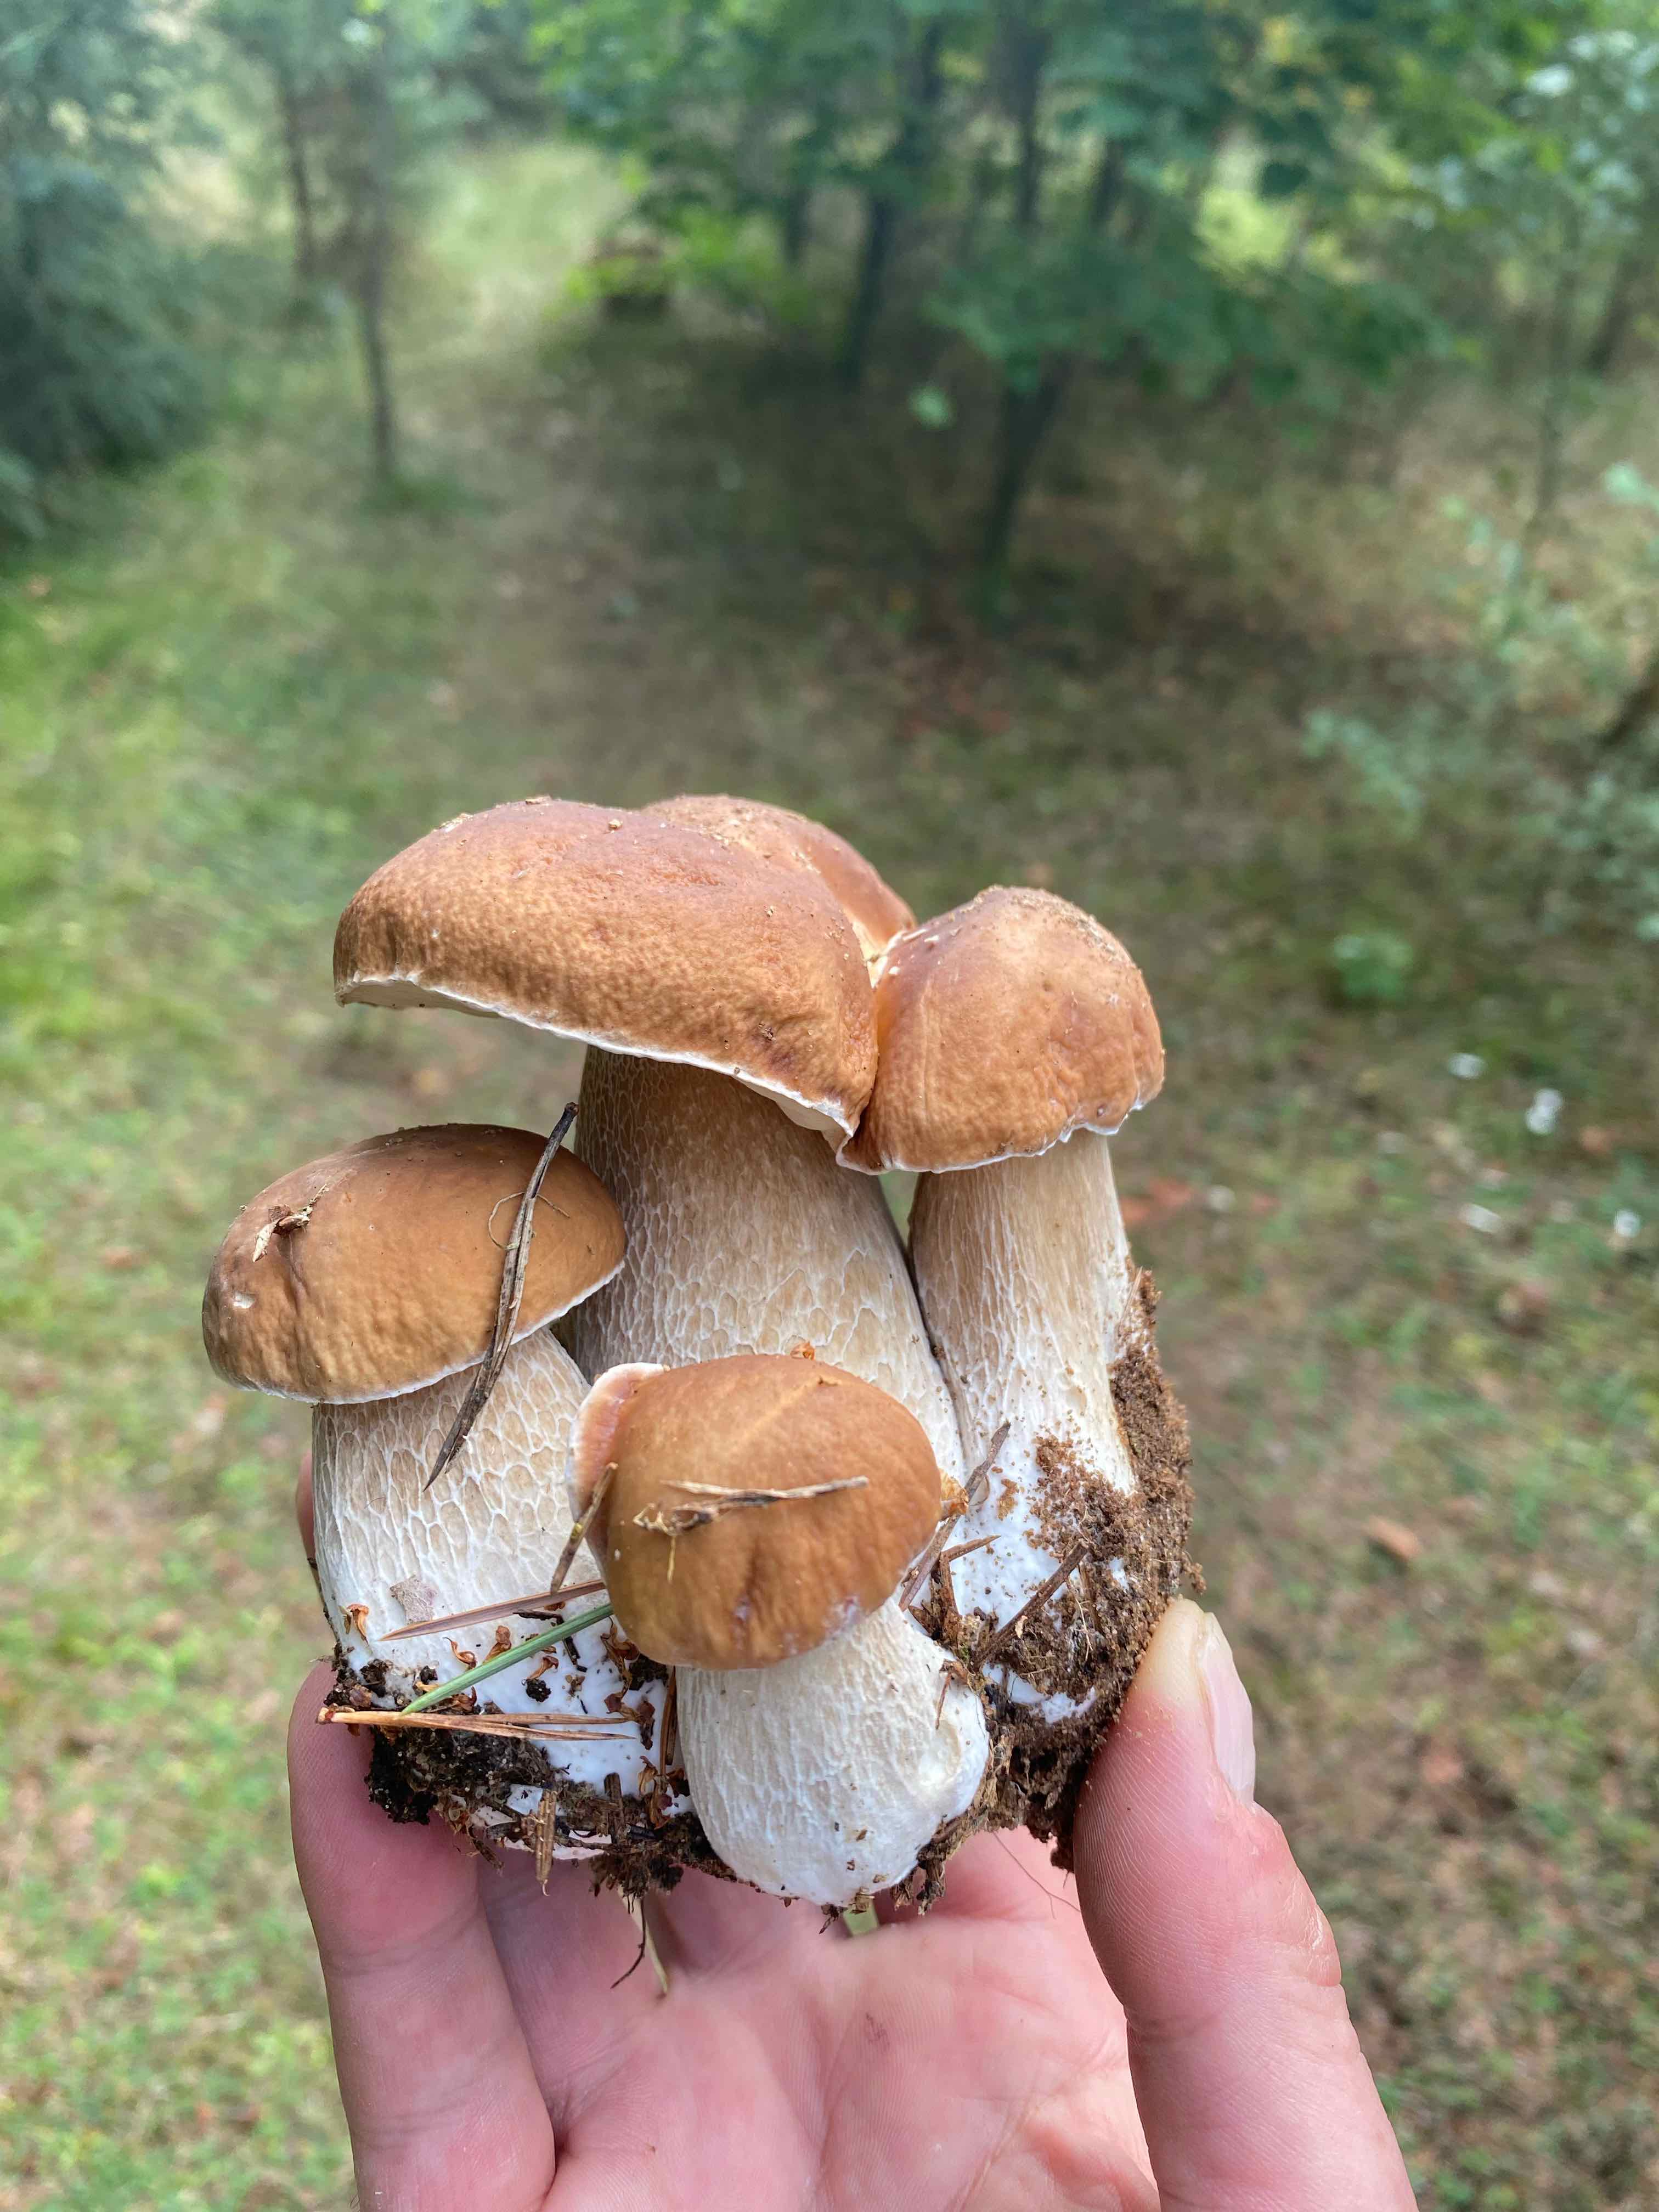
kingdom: Fungi
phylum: Basidiomycota
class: Agaricomycetes
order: Boletales
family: Boletaceae
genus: Boletus
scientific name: Boletus edulis
